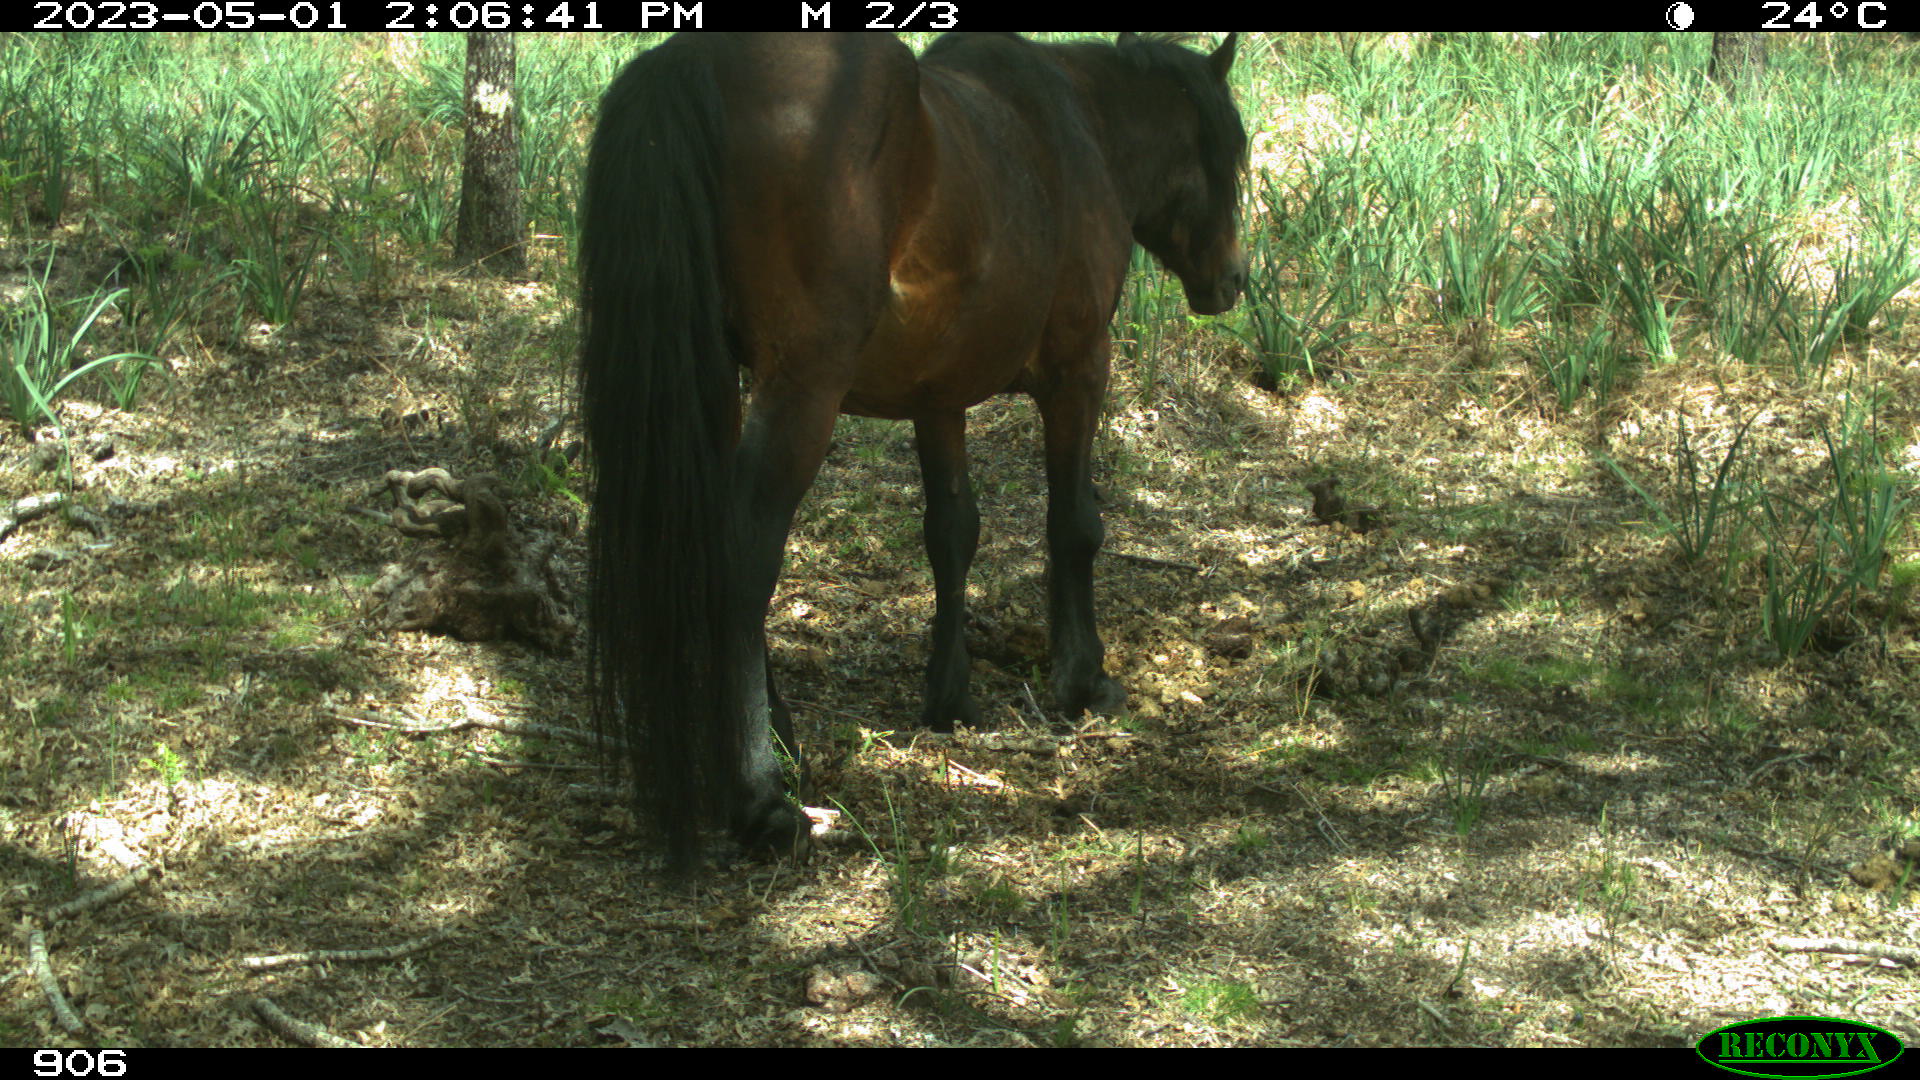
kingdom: Animalia
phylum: Chordata
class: Mammalia
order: Perissodactyla
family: Equidae
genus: Equus
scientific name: Equus caballus
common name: Horse
